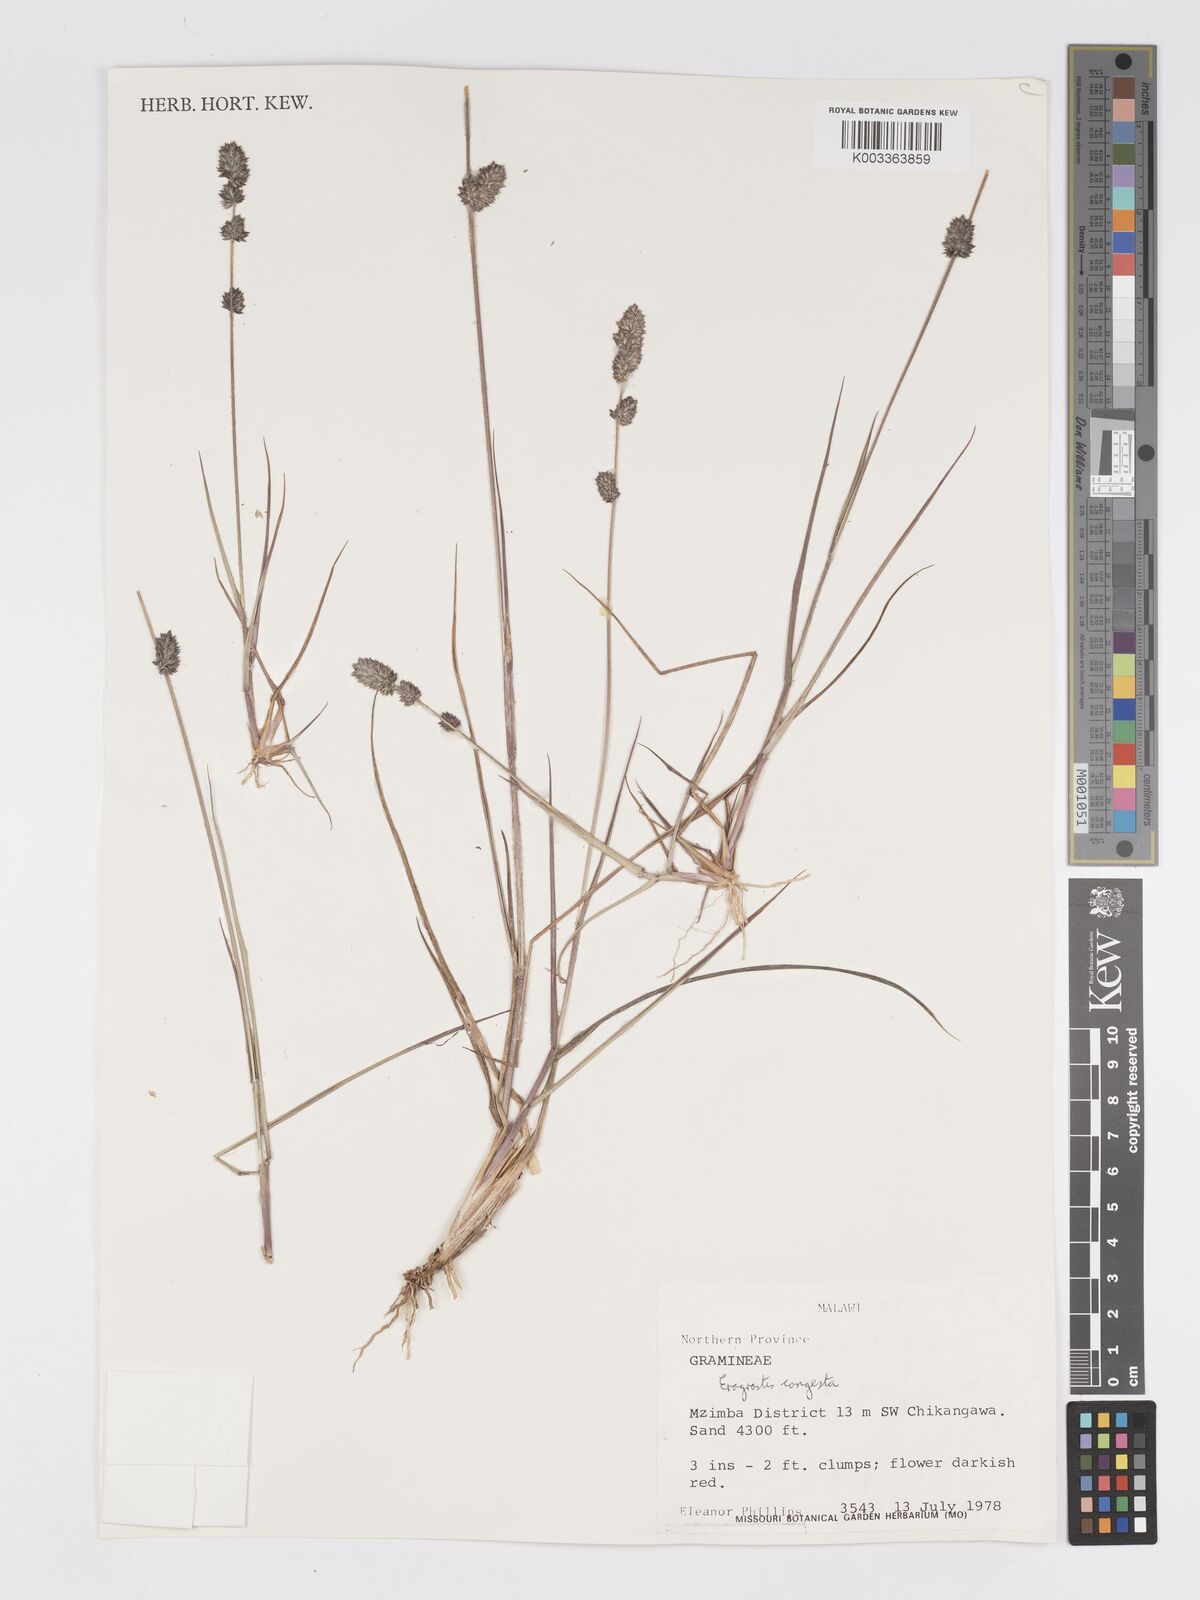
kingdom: Plantae
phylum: Tracheophyta
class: Liliopsida
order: Poales
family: Poaceae
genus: Eragrostis
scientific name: Eragrostis congesta
